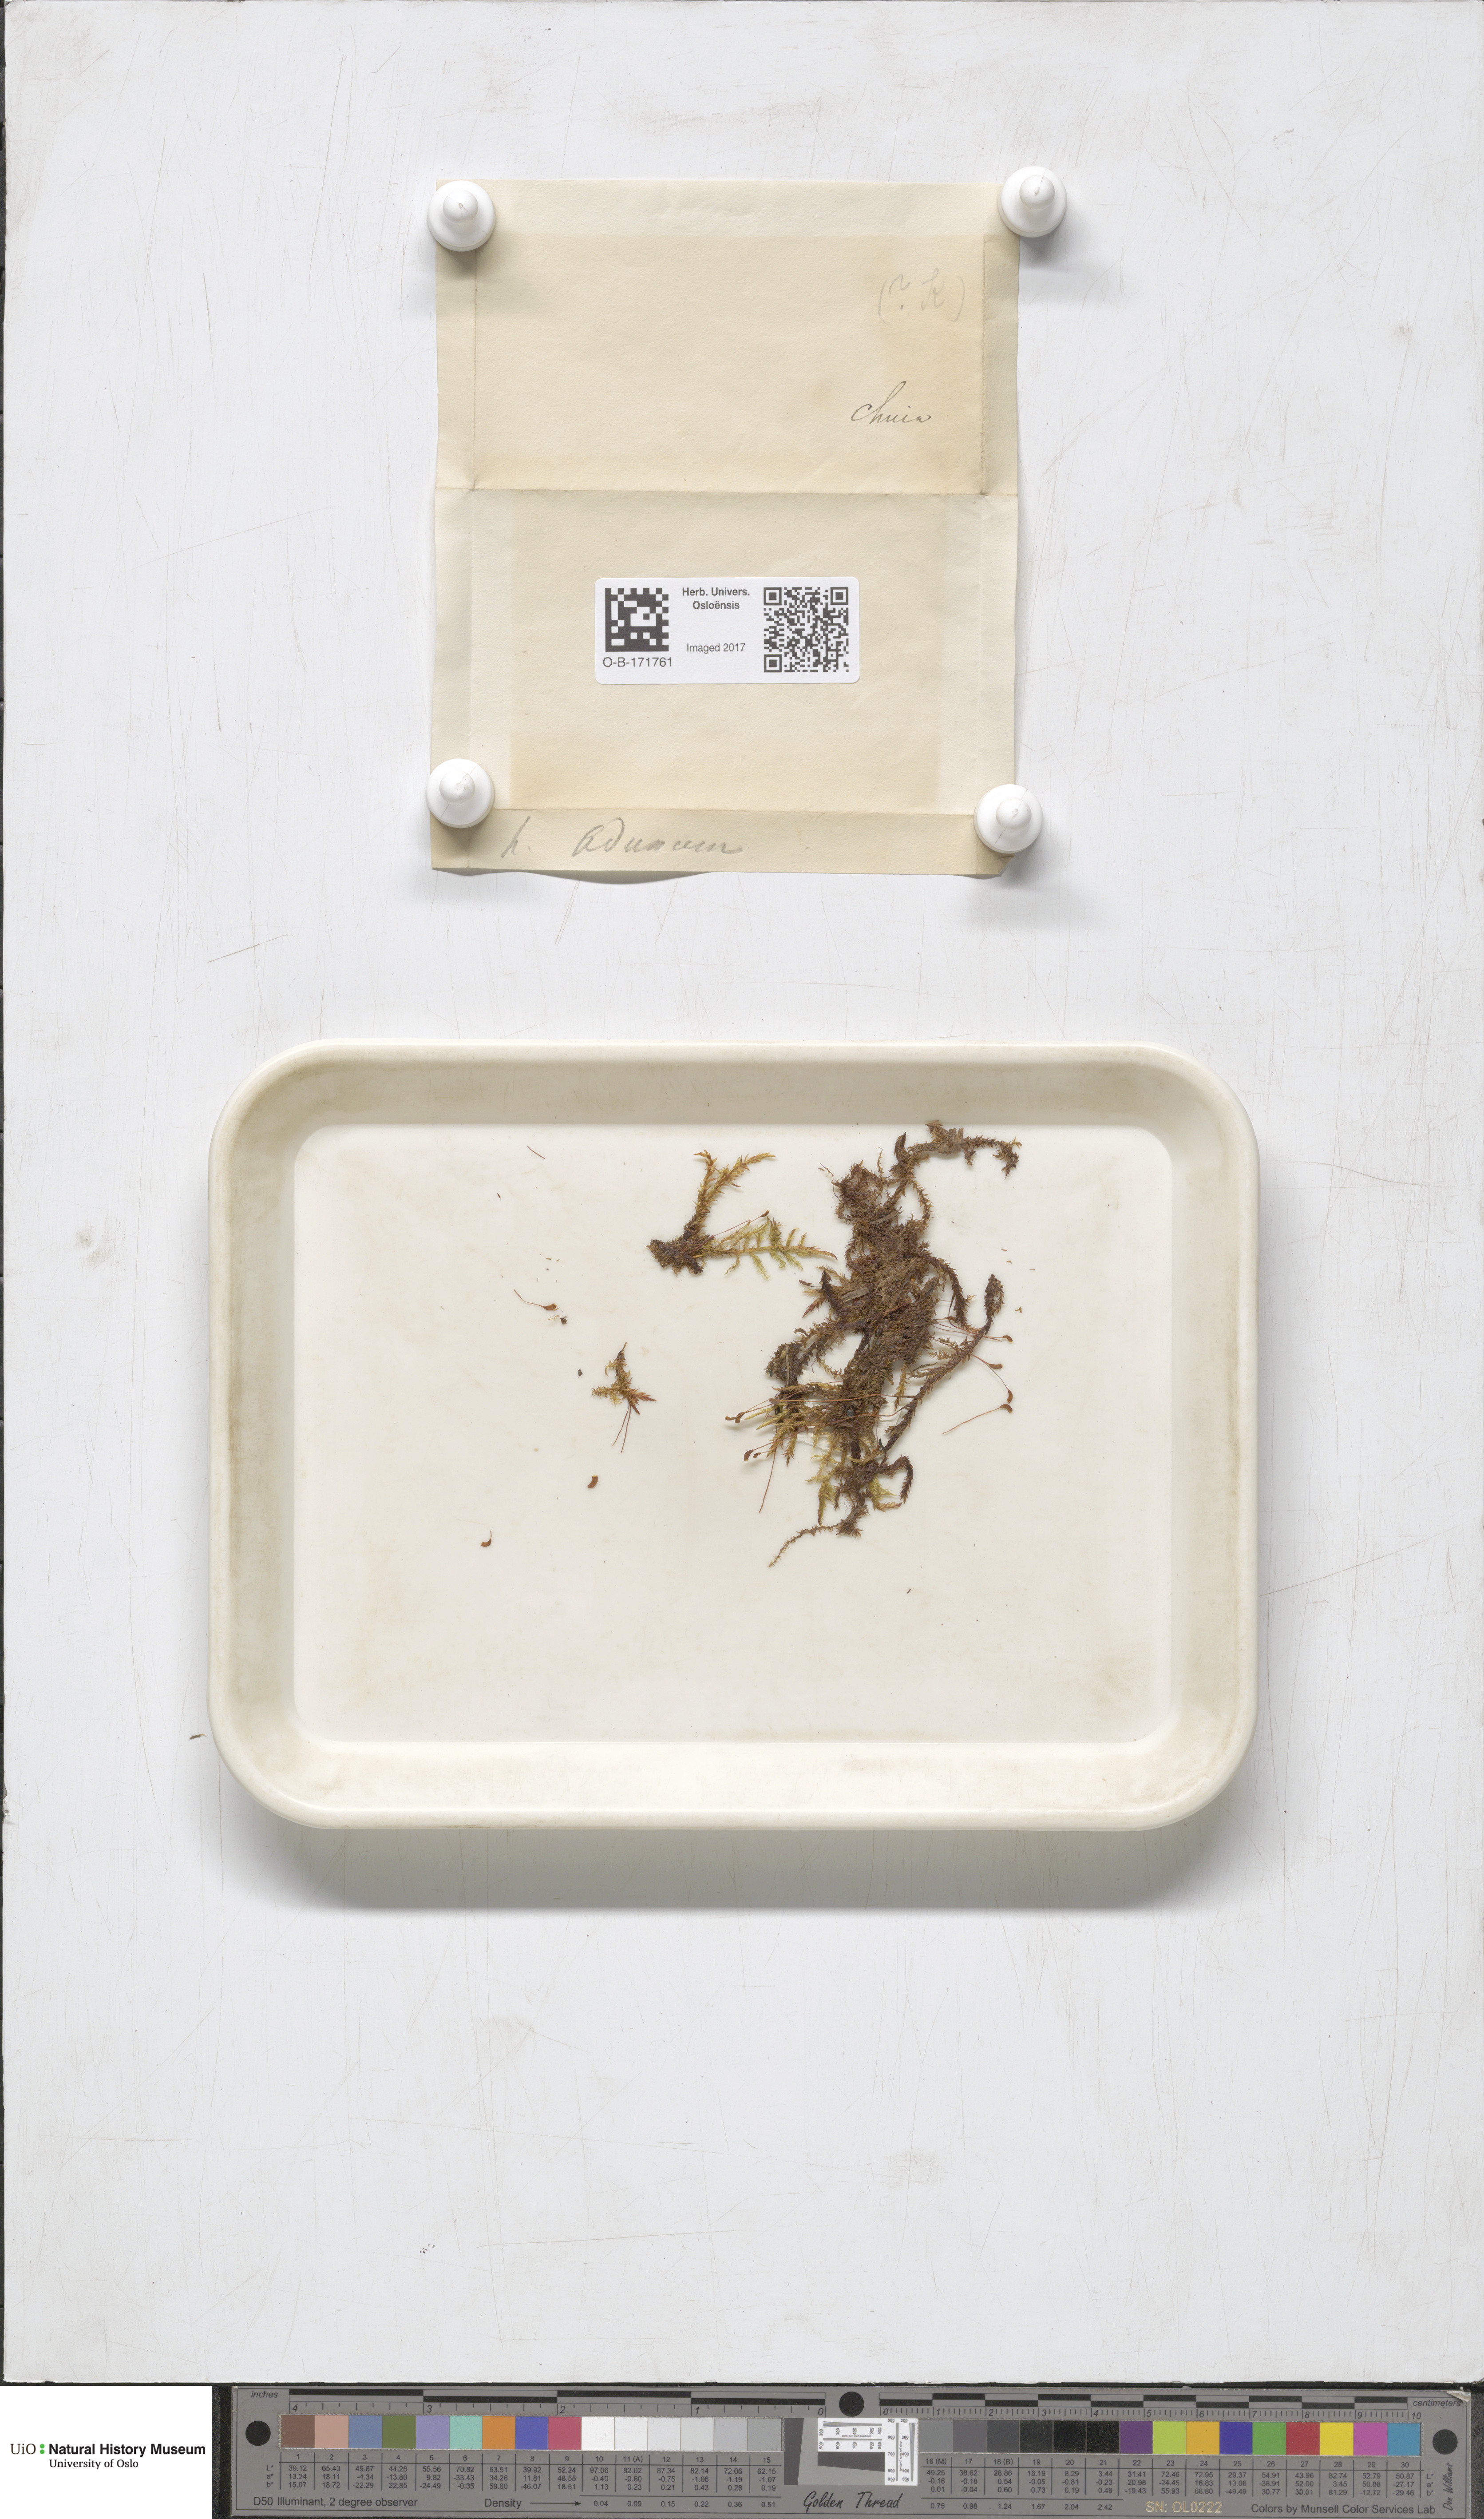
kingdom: Plantae
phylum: Bryophyta
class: Bryopsida
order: Hypnales
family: Amblystegiaceae
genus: Drepanocladus
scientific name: Drepanocladus aduncus
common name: Knieff's hook moss
